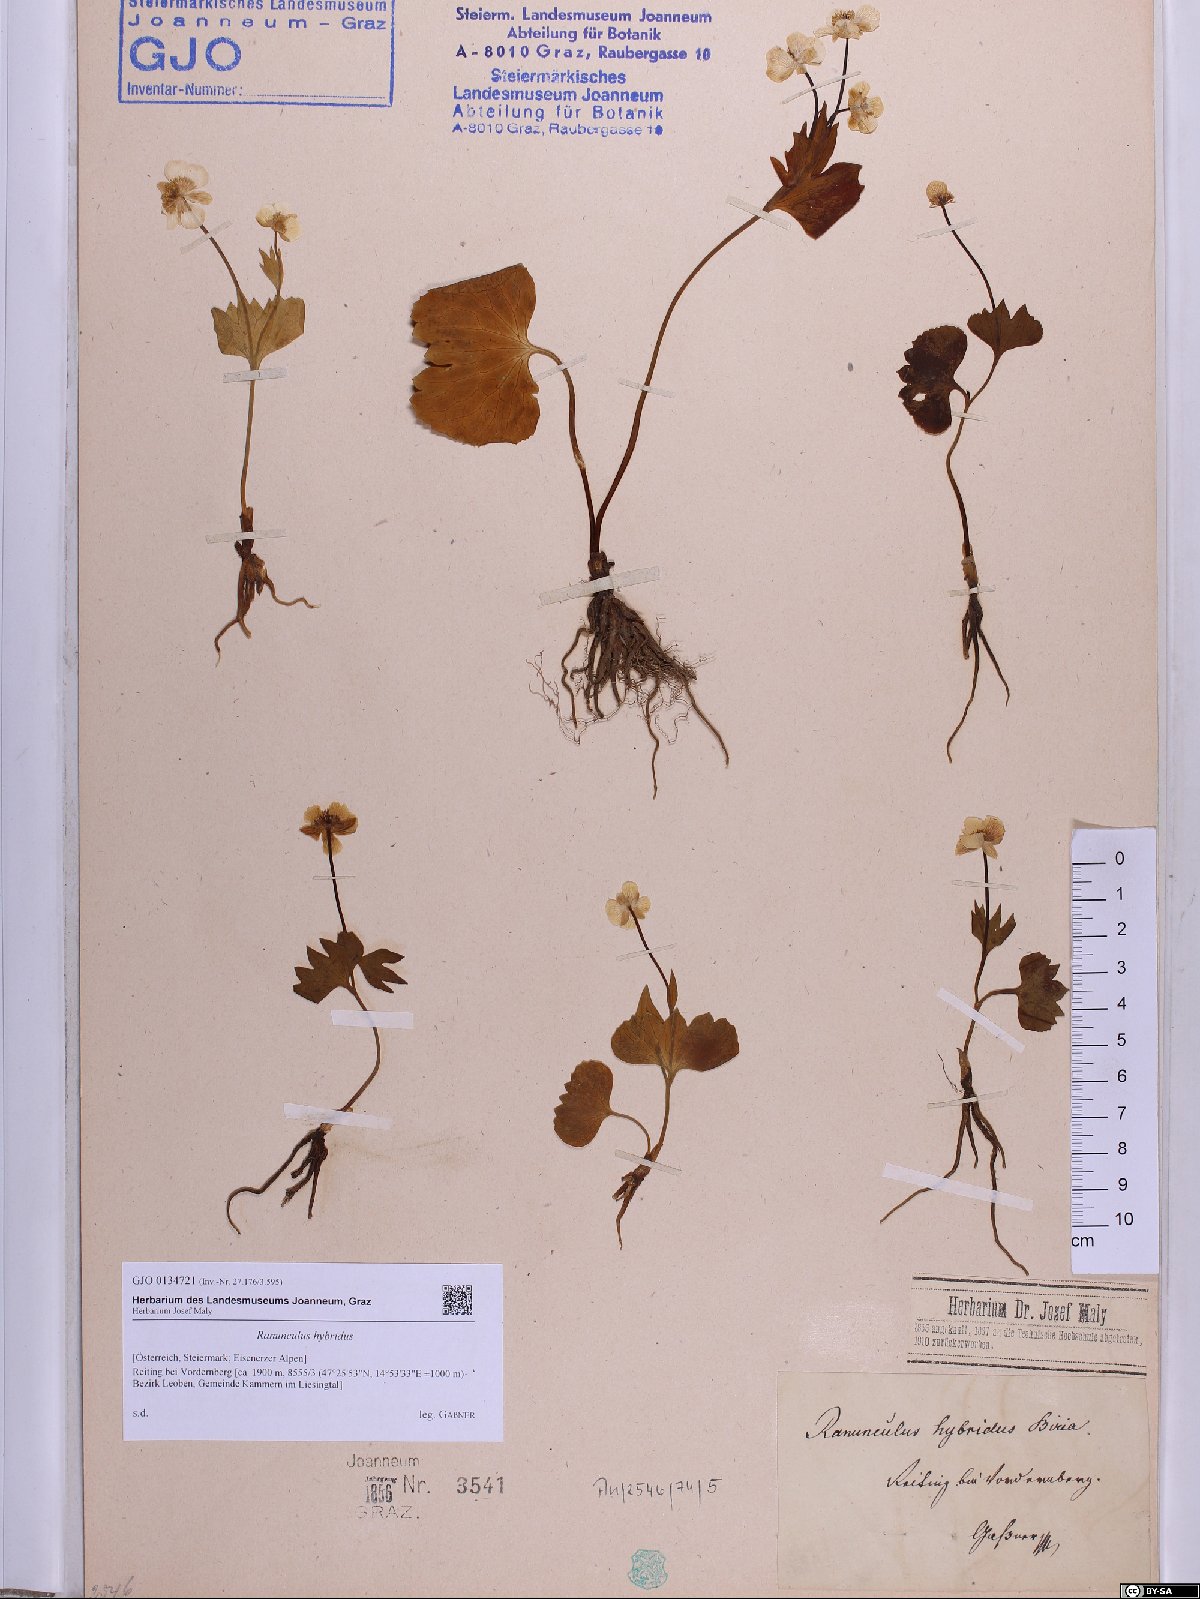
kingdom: Plantae
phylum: Tracheophyta
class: Magnoliopsida
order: Ranunculales
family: Ranunculaceae
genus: Ranunculus
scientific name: Ranunculus hybridus
